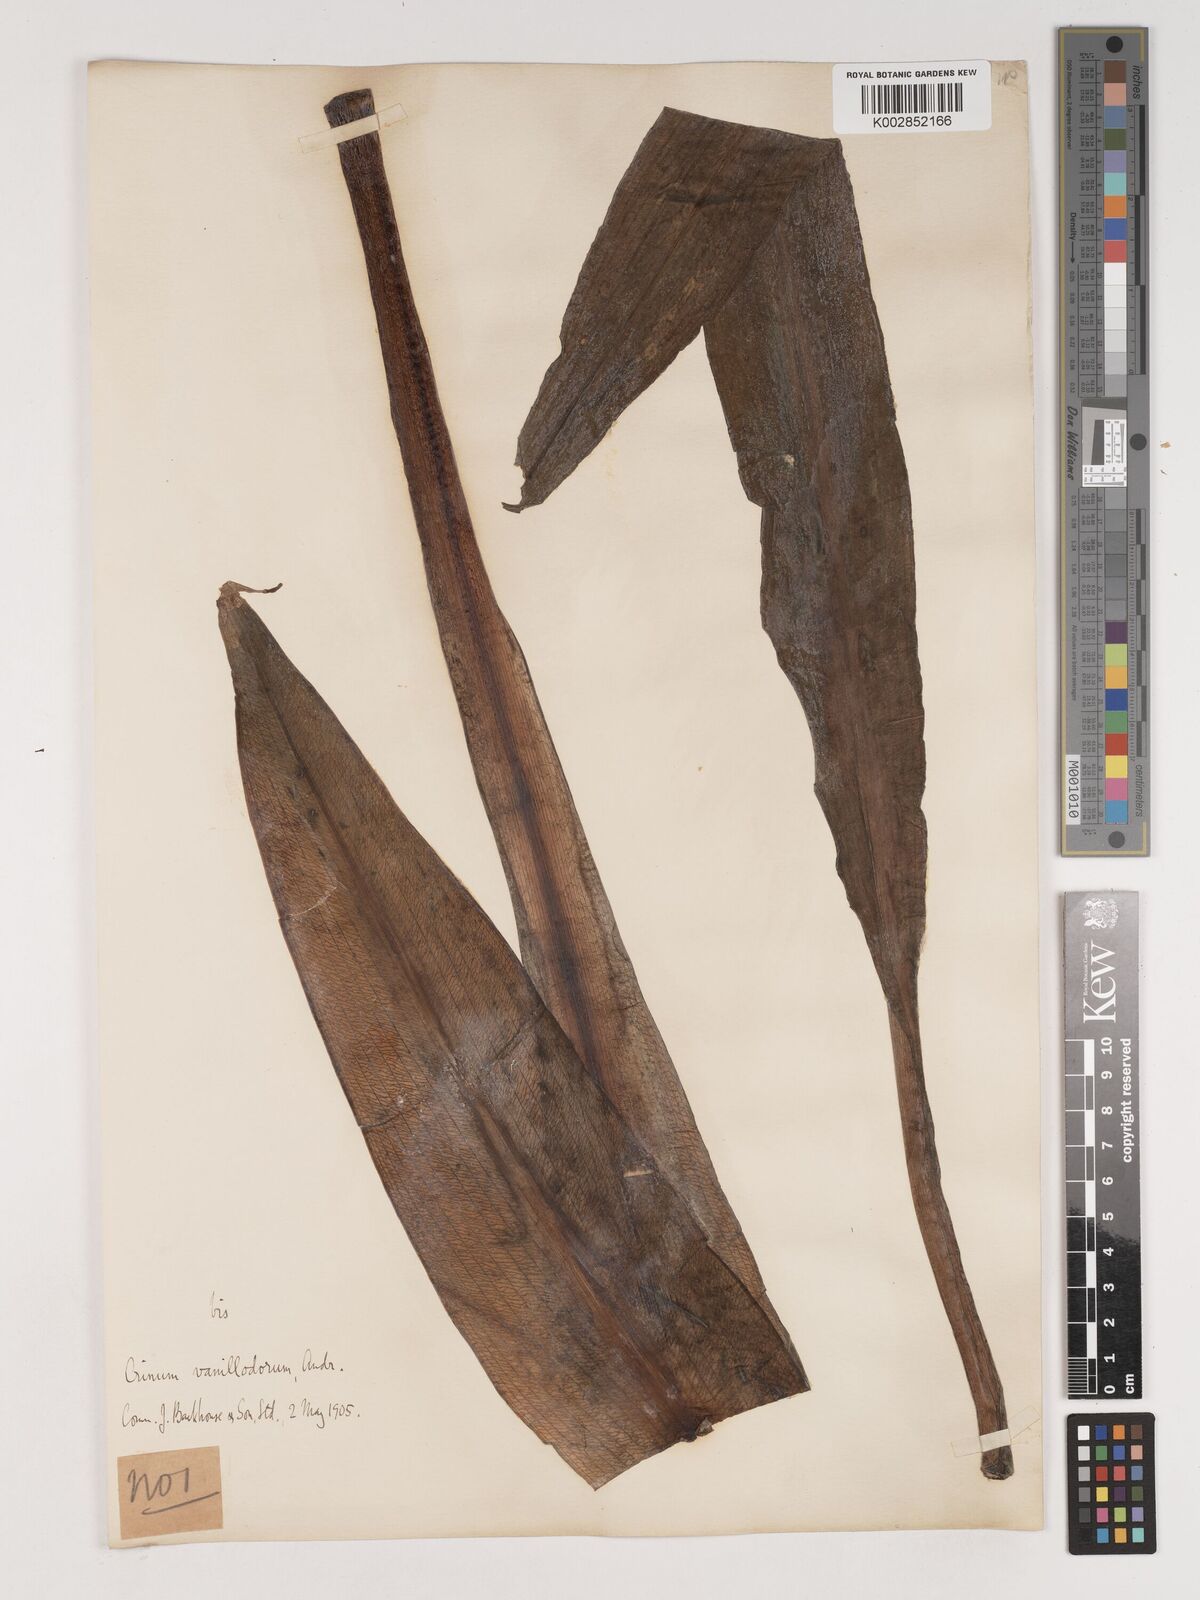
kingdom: Plantae
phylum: Tracheophyta
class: Liliopsida
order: Asparagales
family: Amaryllidaceae
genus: Crinum
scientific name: Crinum lane-poolei
